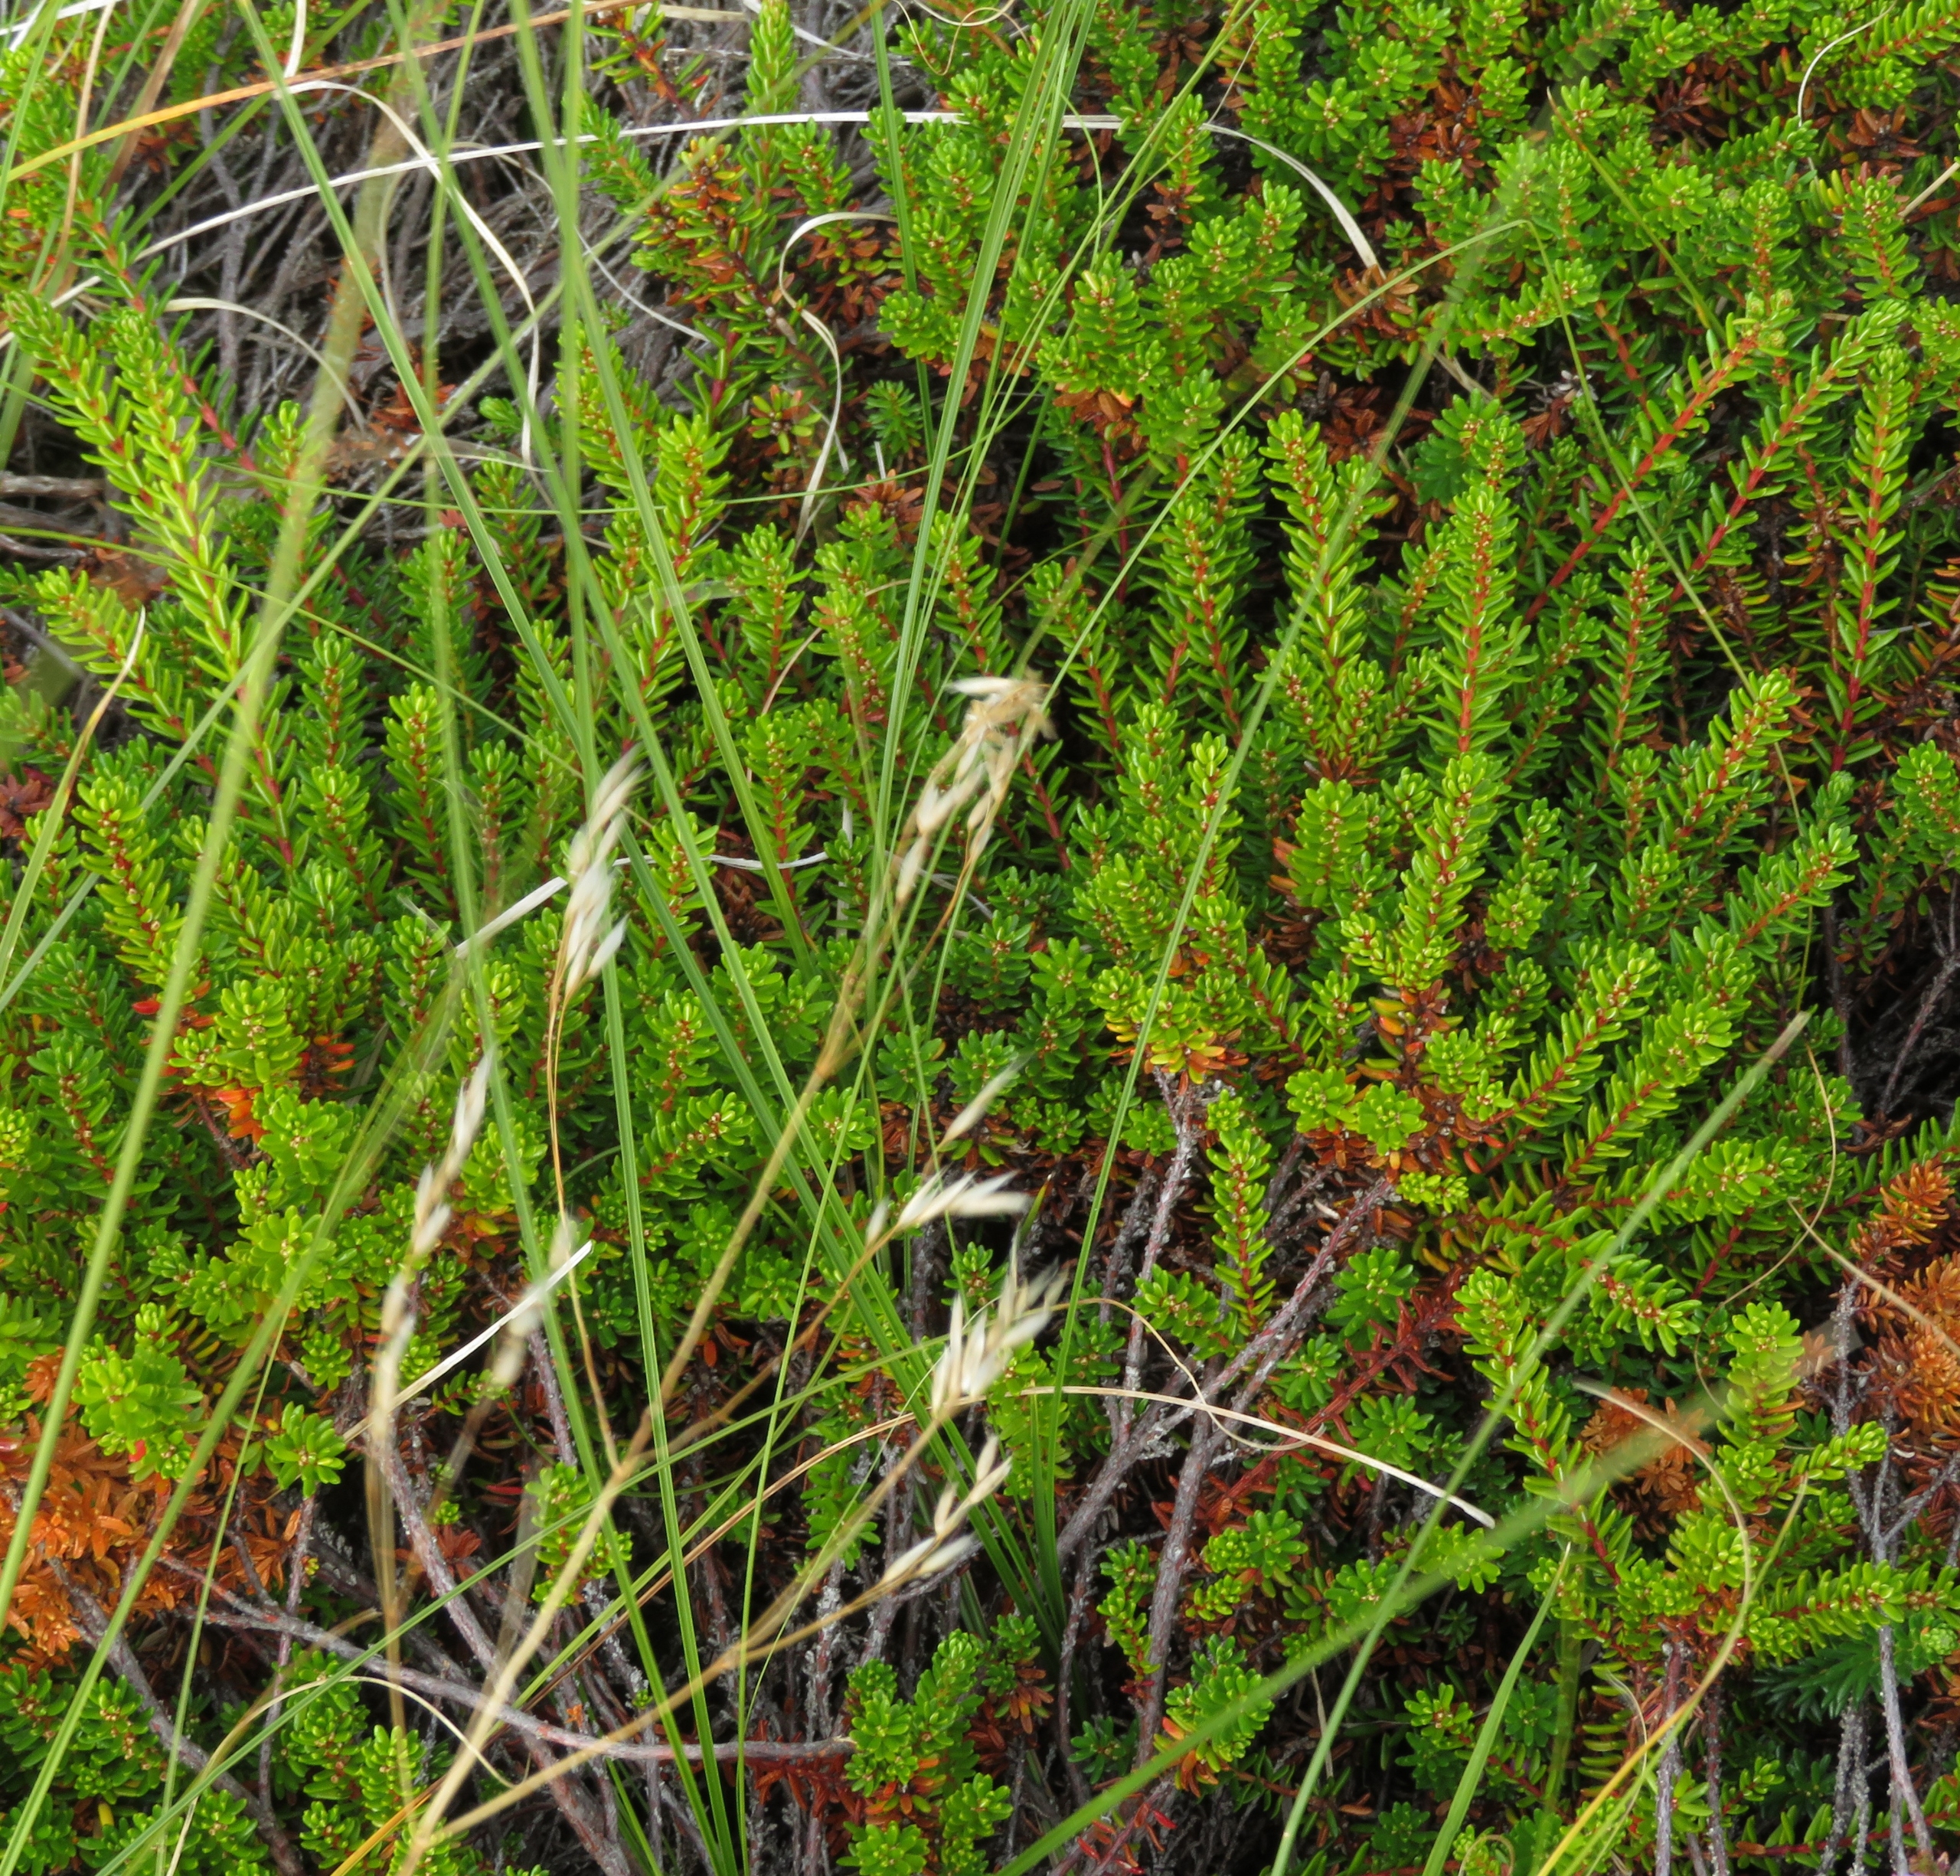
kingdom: Plantae
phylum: Tracheophyta
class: Magnoliopsida
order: Ericales
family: Ericaceae
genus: Empetrum
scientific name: Empetrum nigrum
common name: Revling
